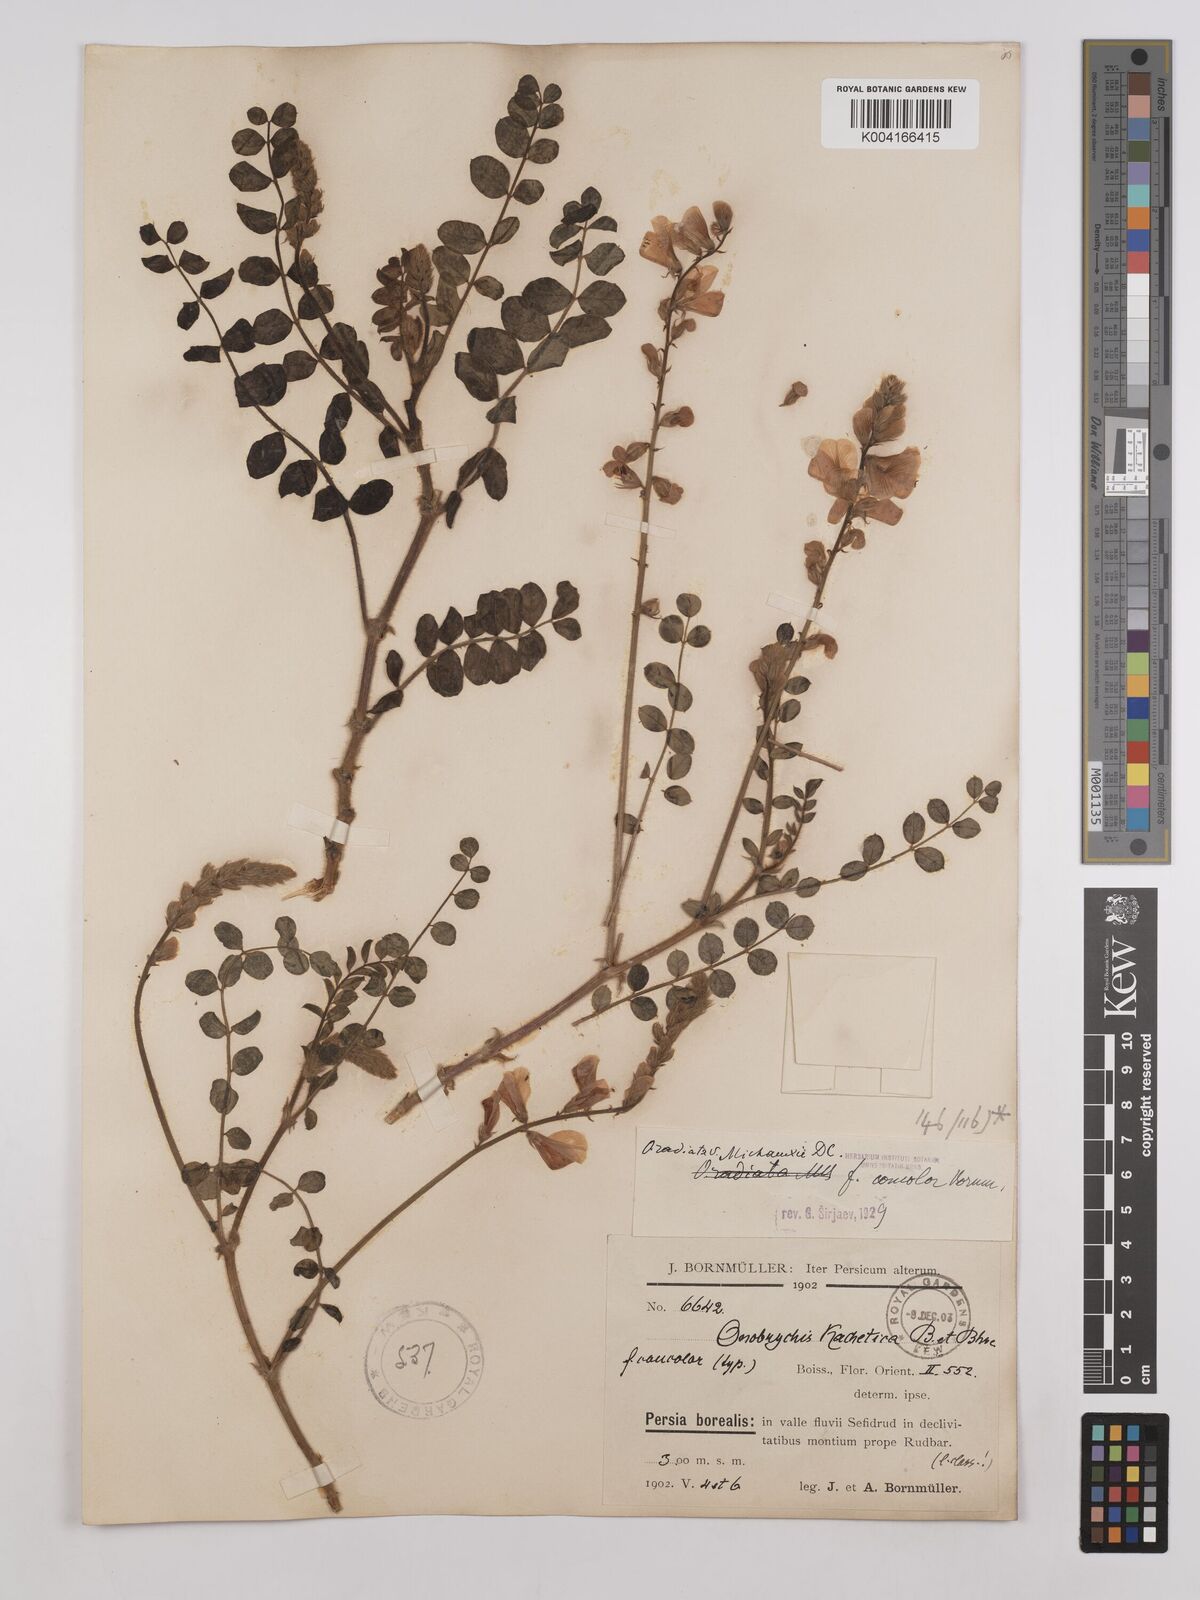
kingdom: Plantae
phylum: Tracheophyta
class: Magnoliopsida
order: Fabales
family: Fabaceae
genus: Onobrychis
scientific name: Onobrychis
